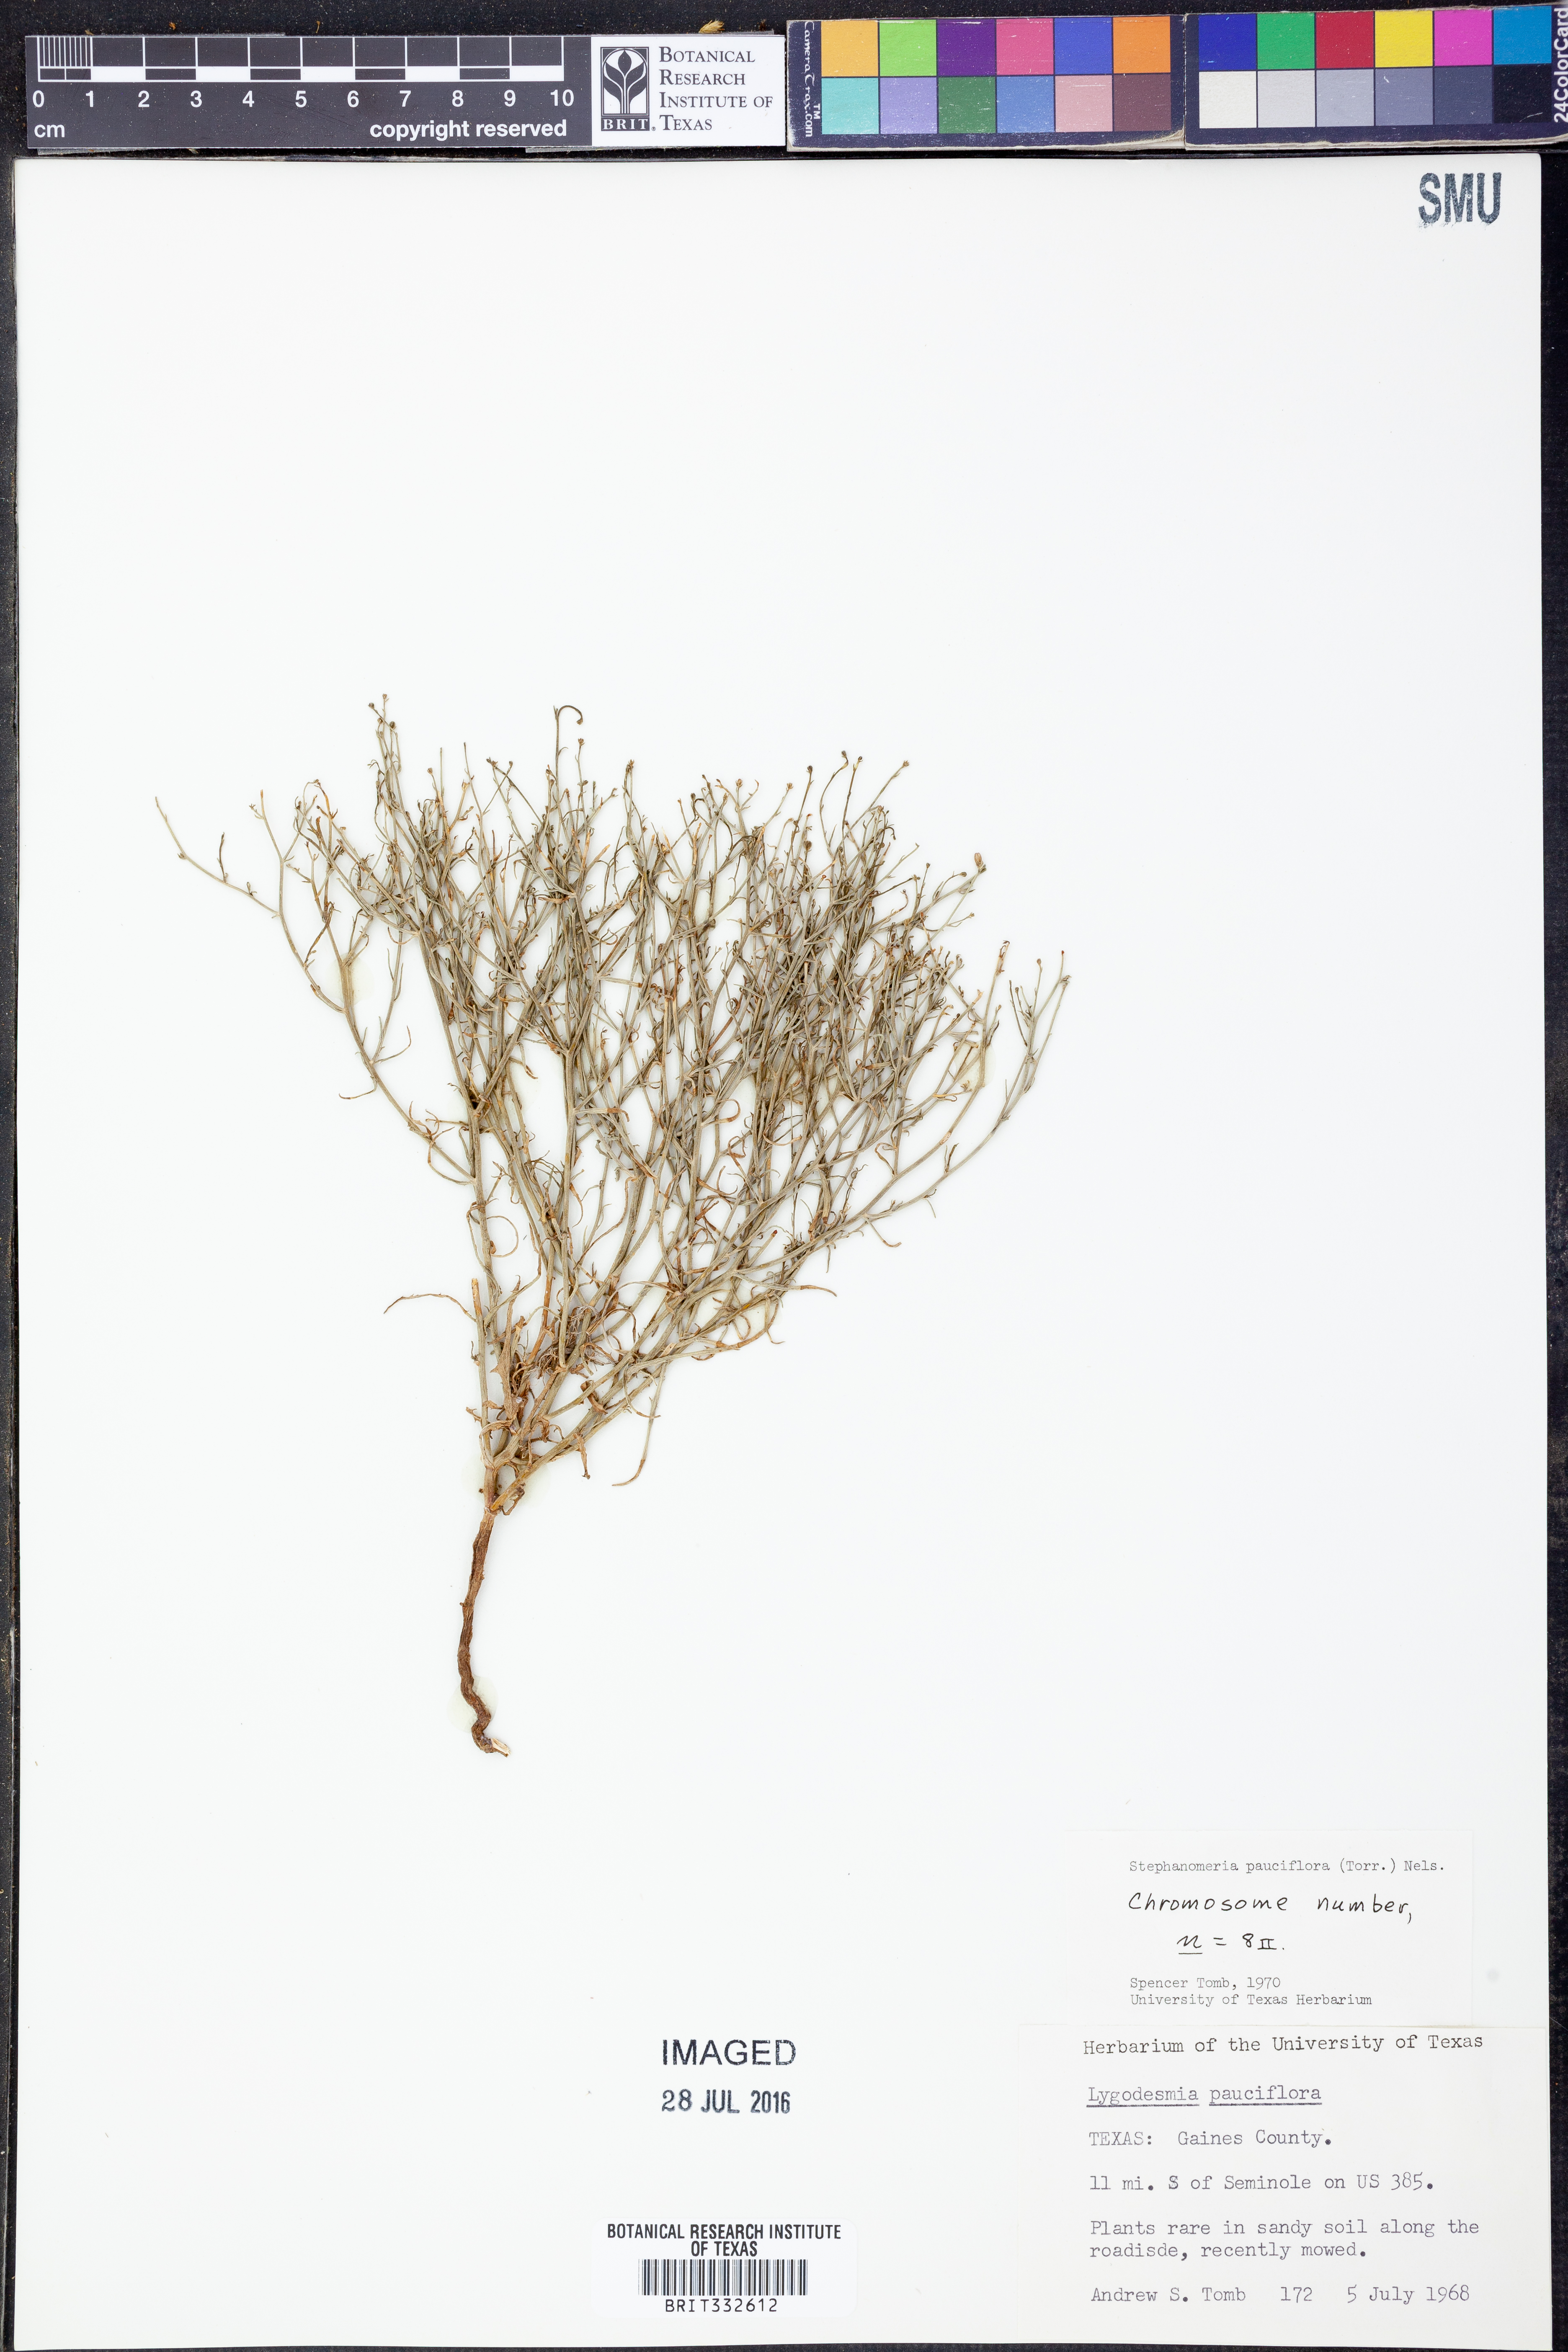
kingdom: Plantae
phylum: Tracheophyta
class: Magnoliopsida
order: Asterales
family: Asteraceae
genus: Stephanomeria
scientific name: Stephanomeria pauciflora
